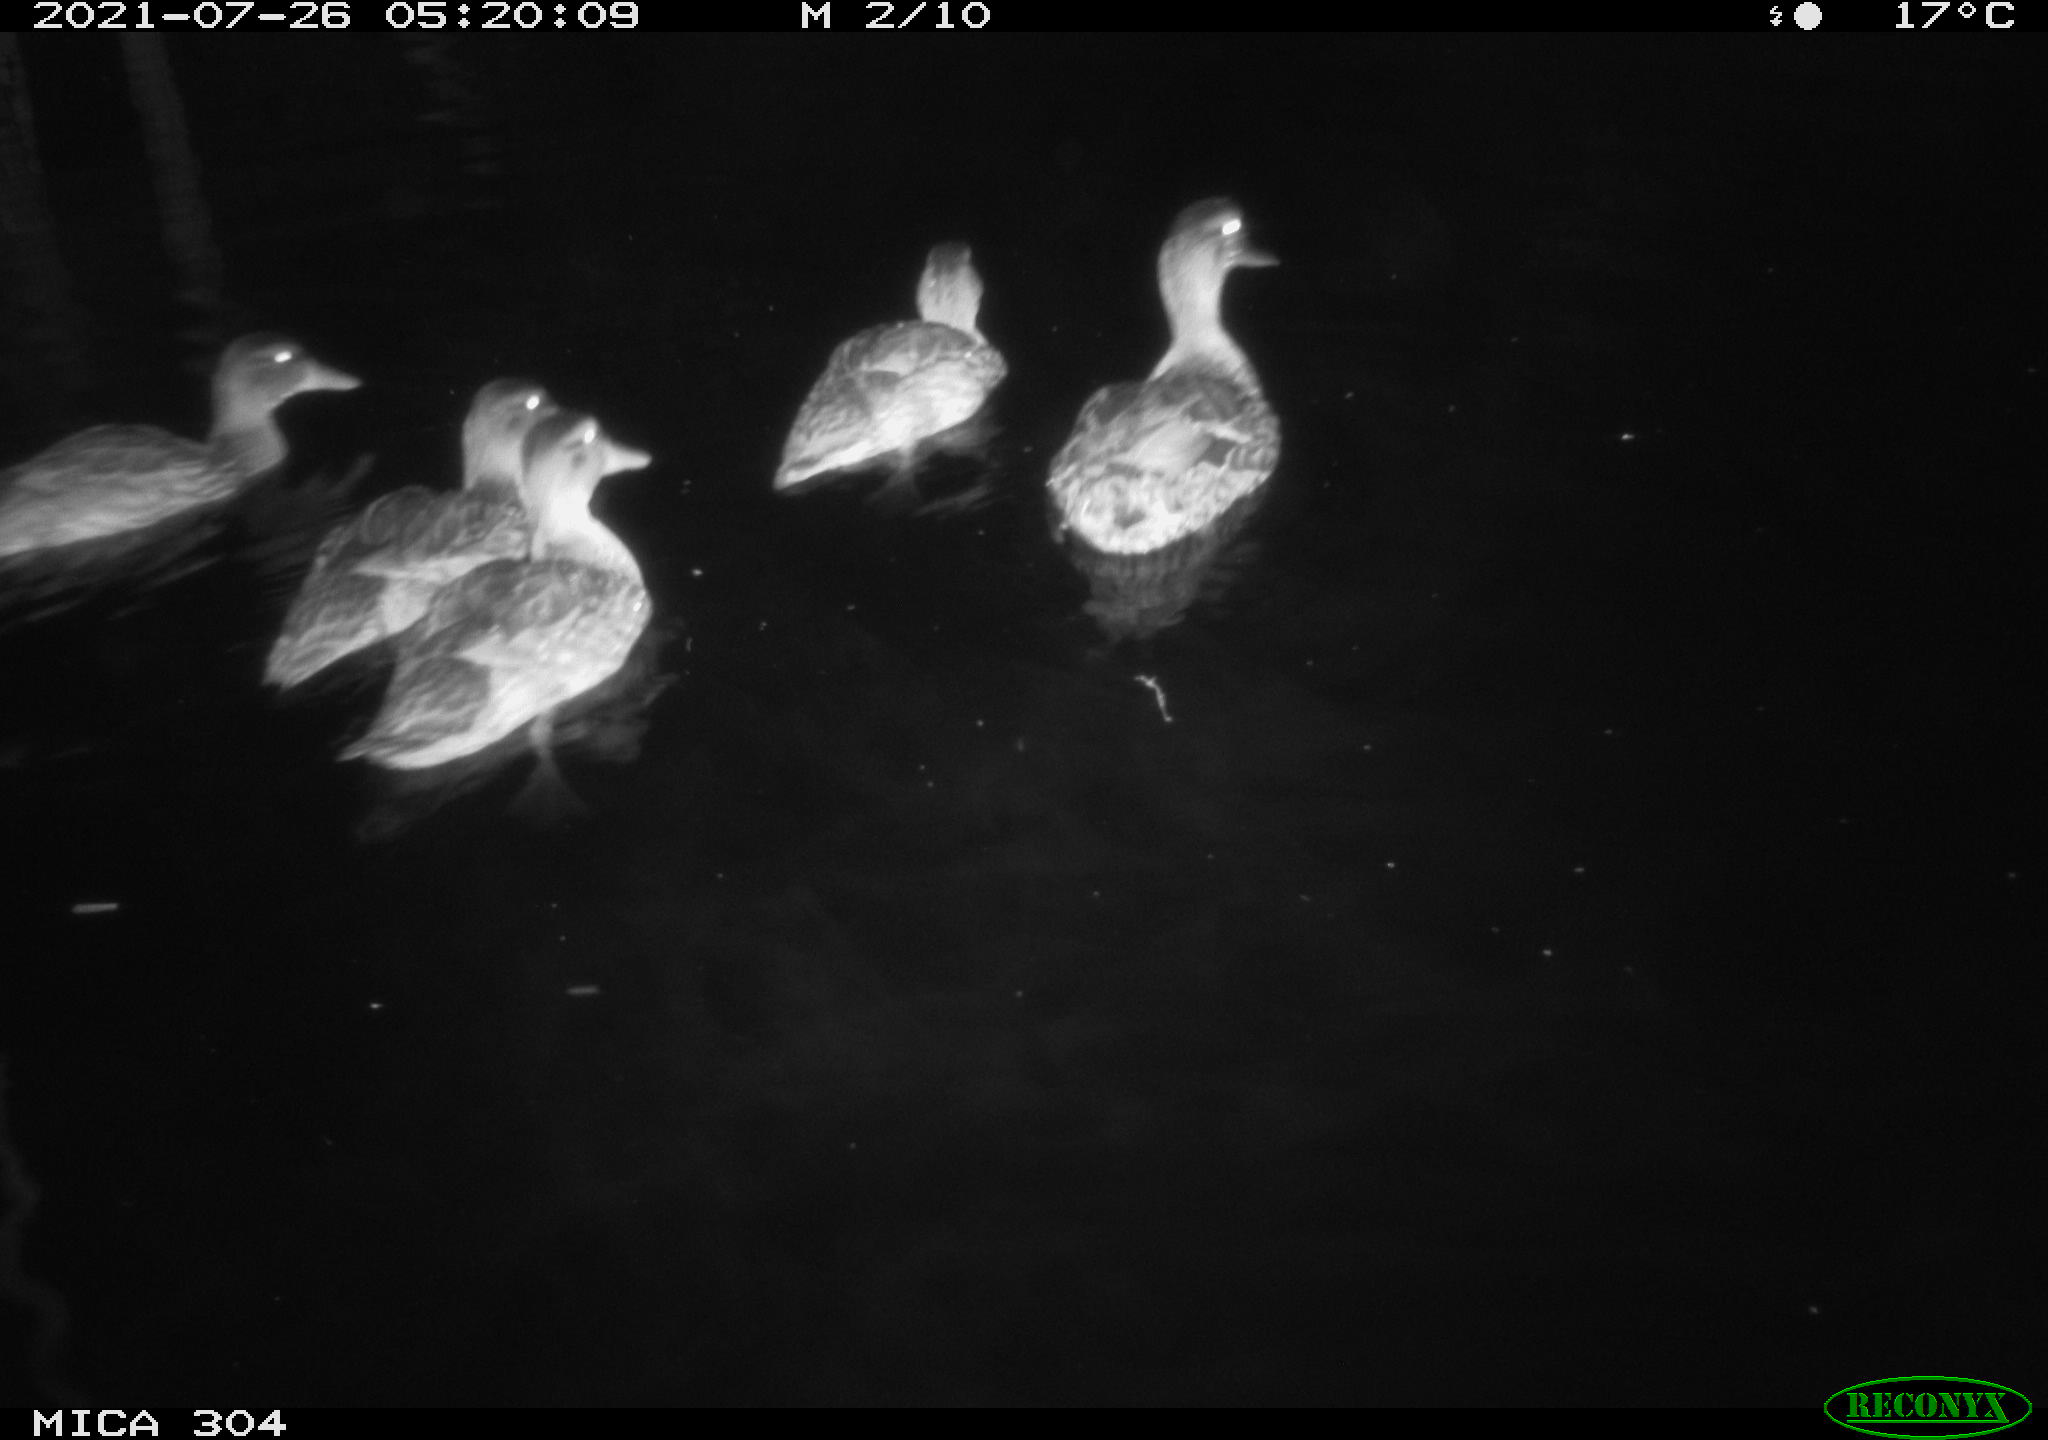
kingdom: Animalia
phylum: Chordata
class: Aves
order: Anseriformes
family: Anatidae
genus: Anas
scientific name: Anas platyrhynchos
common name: Mallard
